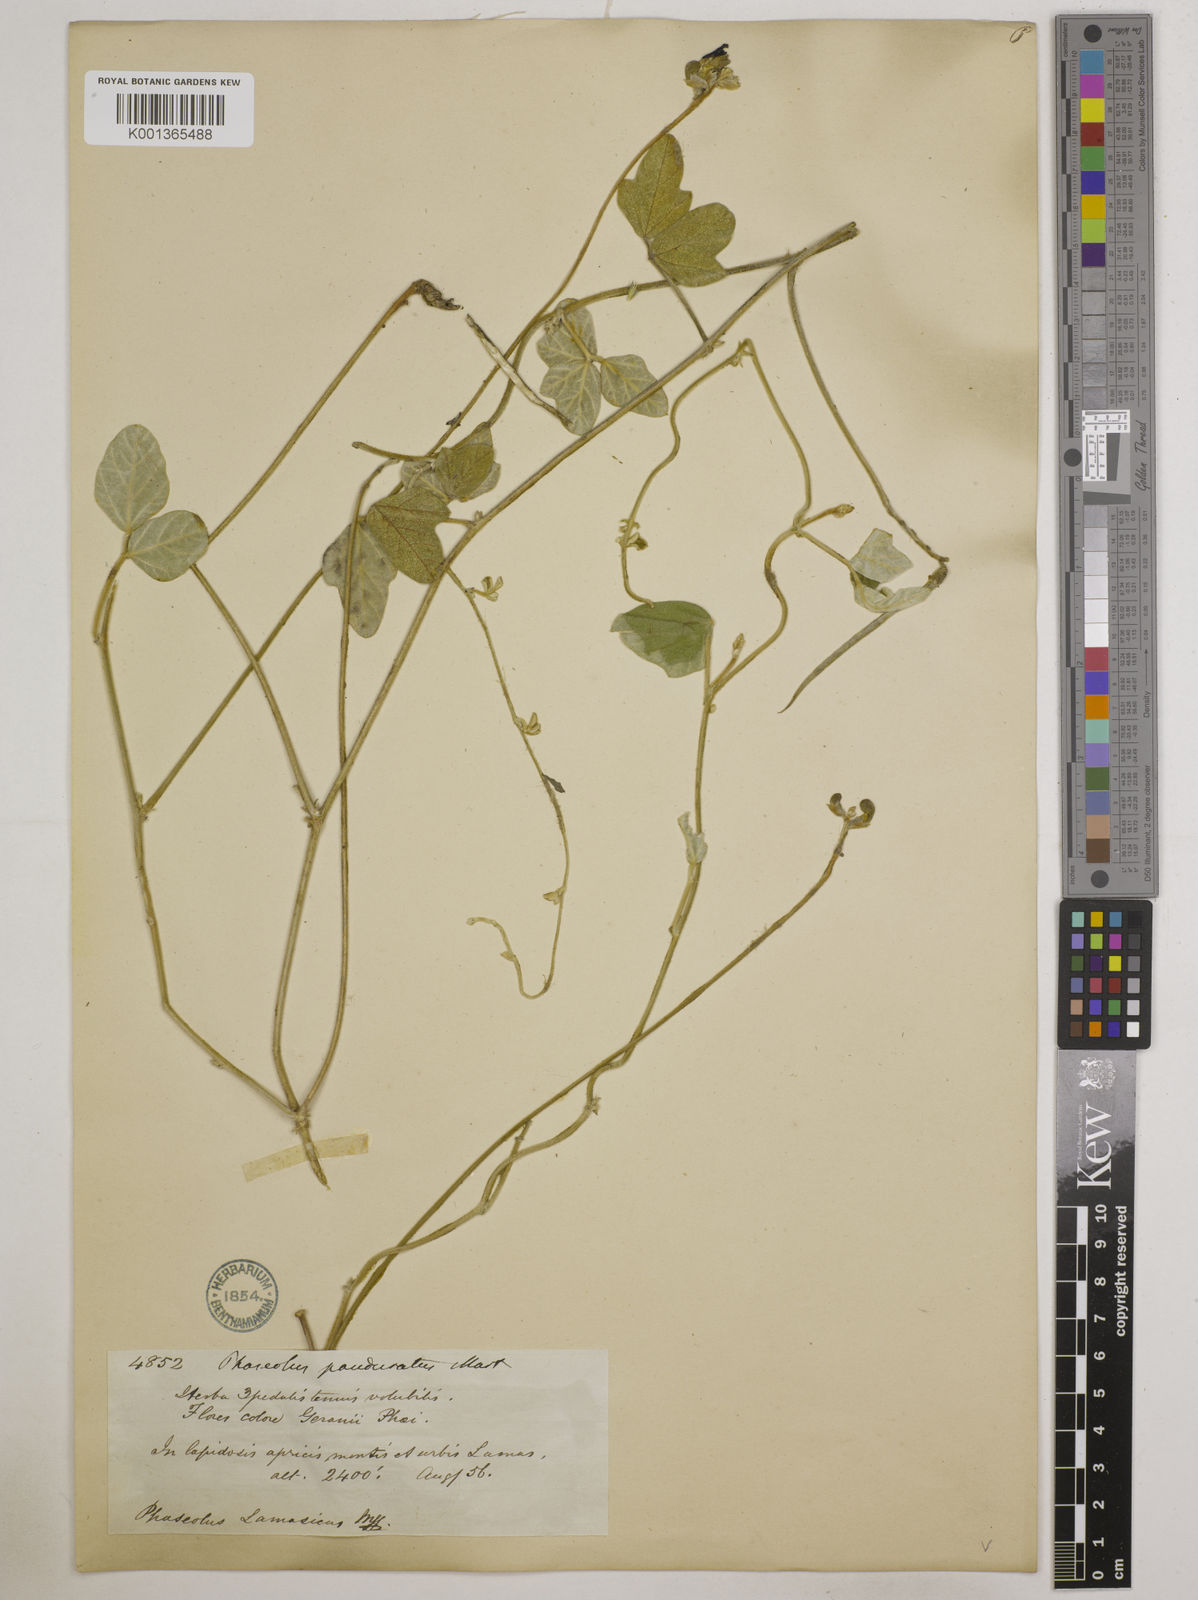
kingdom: Plantae
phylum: Tracheophyta
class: Magnoliopsida
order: Fabales
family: Fabaceae
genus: Macroptilium
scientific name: Macroptilium atropurpureum
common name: Purple bushbean
